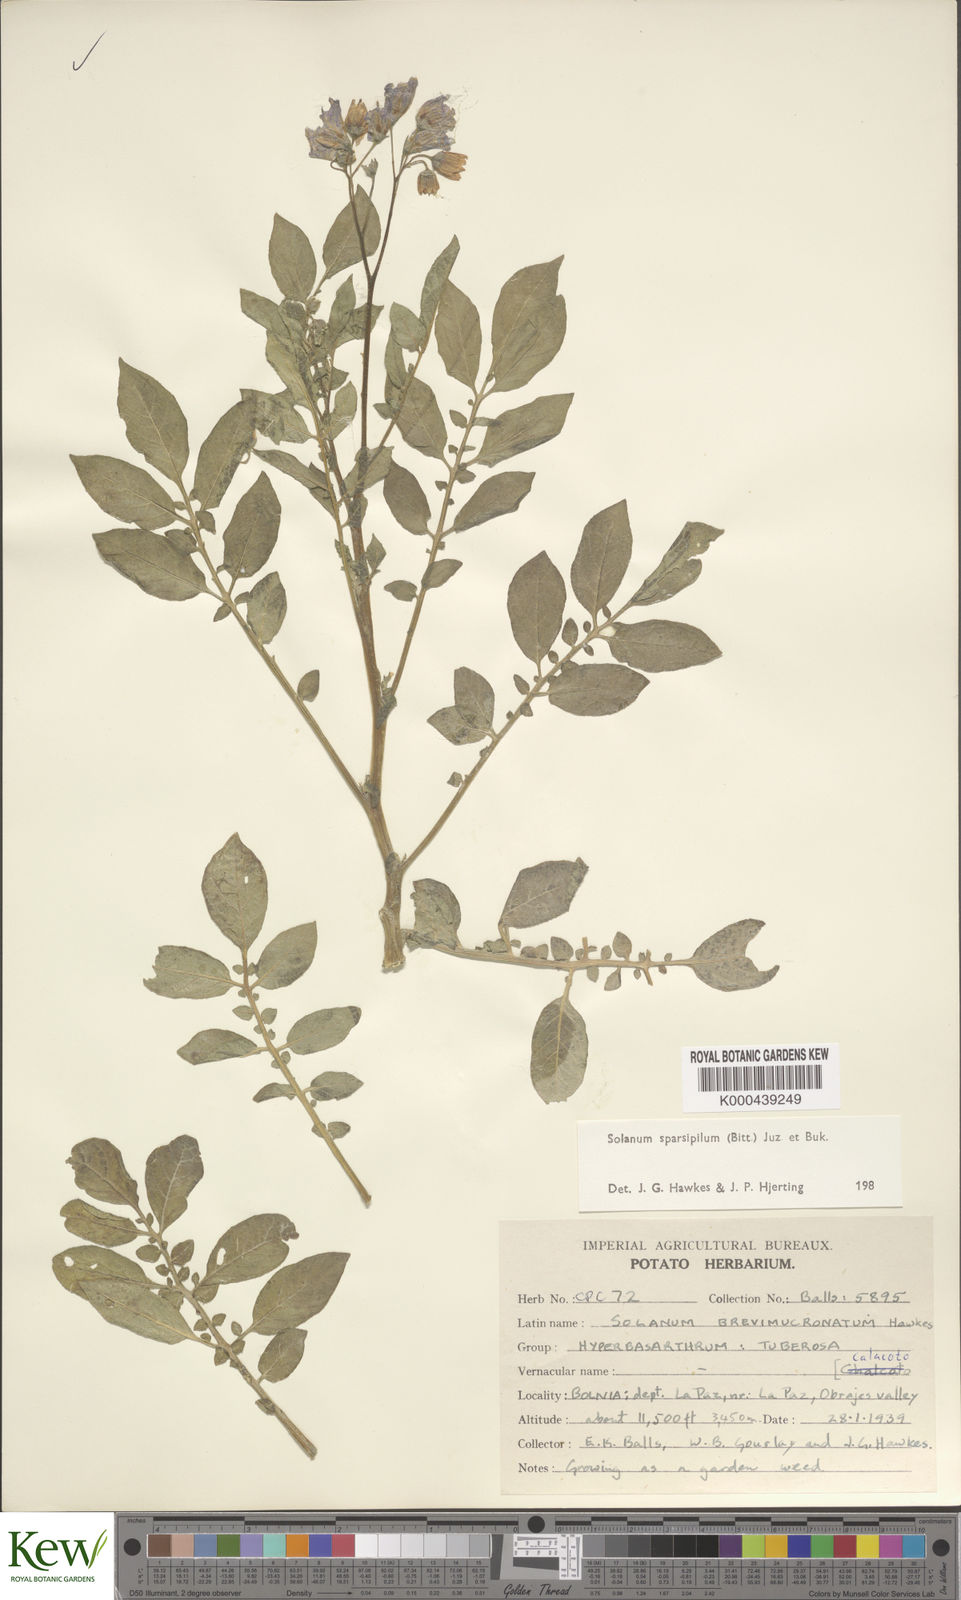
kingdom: Plantae
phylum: Tracheophyta
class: Magnoliopsida
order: Solanales
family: Solanaceae
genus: Solanum
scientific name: Solanum brevicaule
